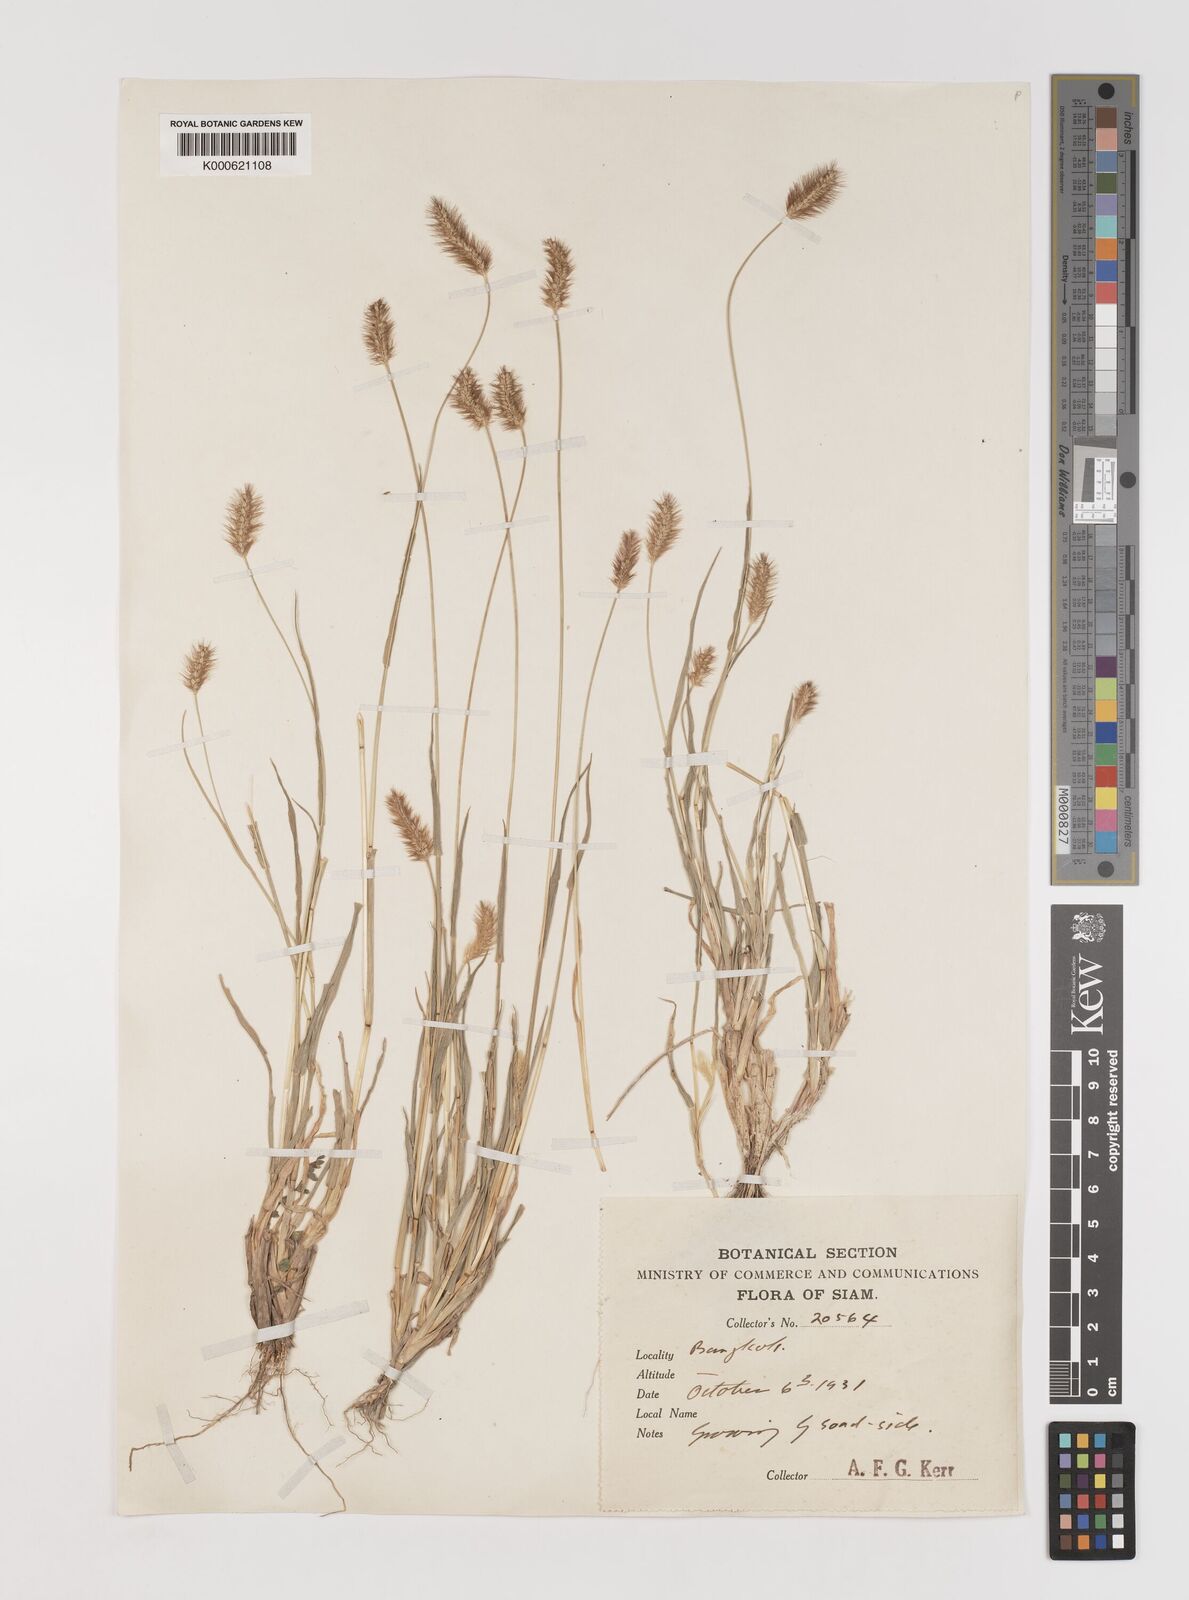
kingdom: Plantae
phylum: Tracheophyta
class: Liliopsida
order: Poales
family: Poaceae
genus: Setaria
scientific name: Setaria pumila
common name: Yellow bristle-grass
